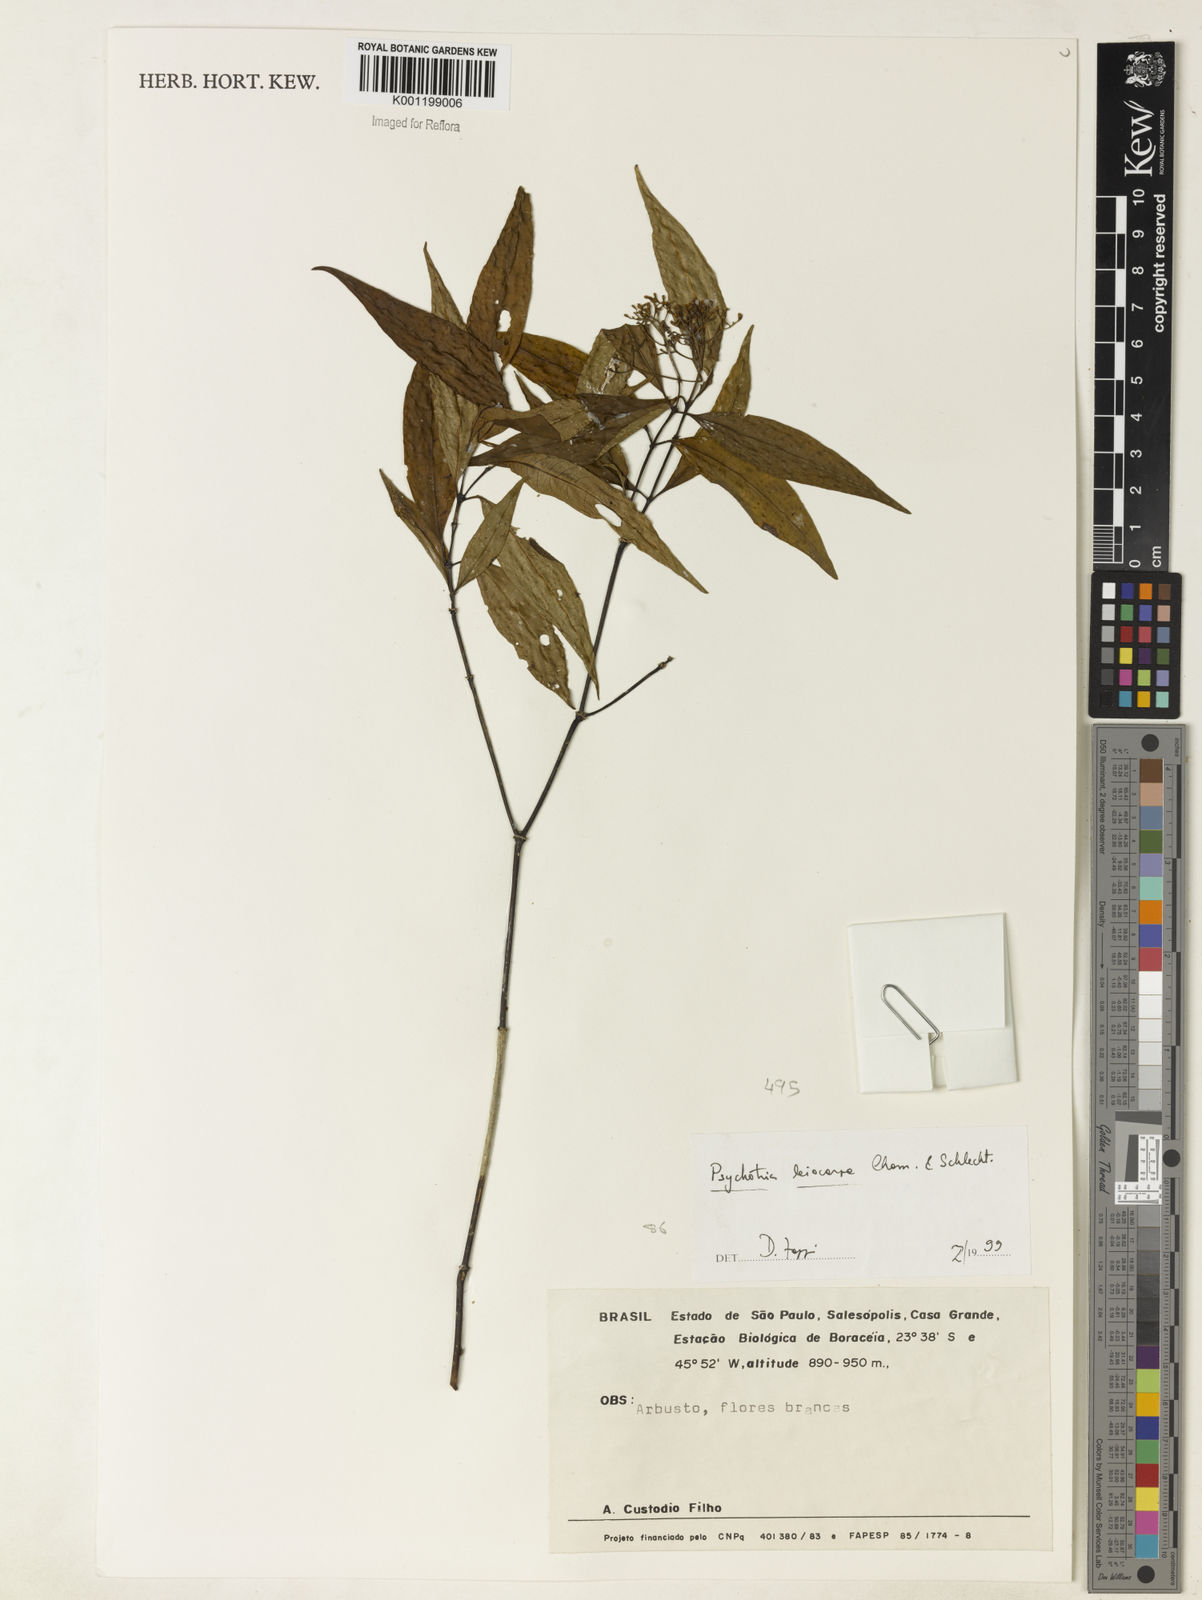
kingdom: Plantae
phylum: Tracheophyta
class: Magnoliopsida
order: Gentianales
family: Rubiaceae
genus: Psychotria
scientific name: Psychotria leiocarpa
